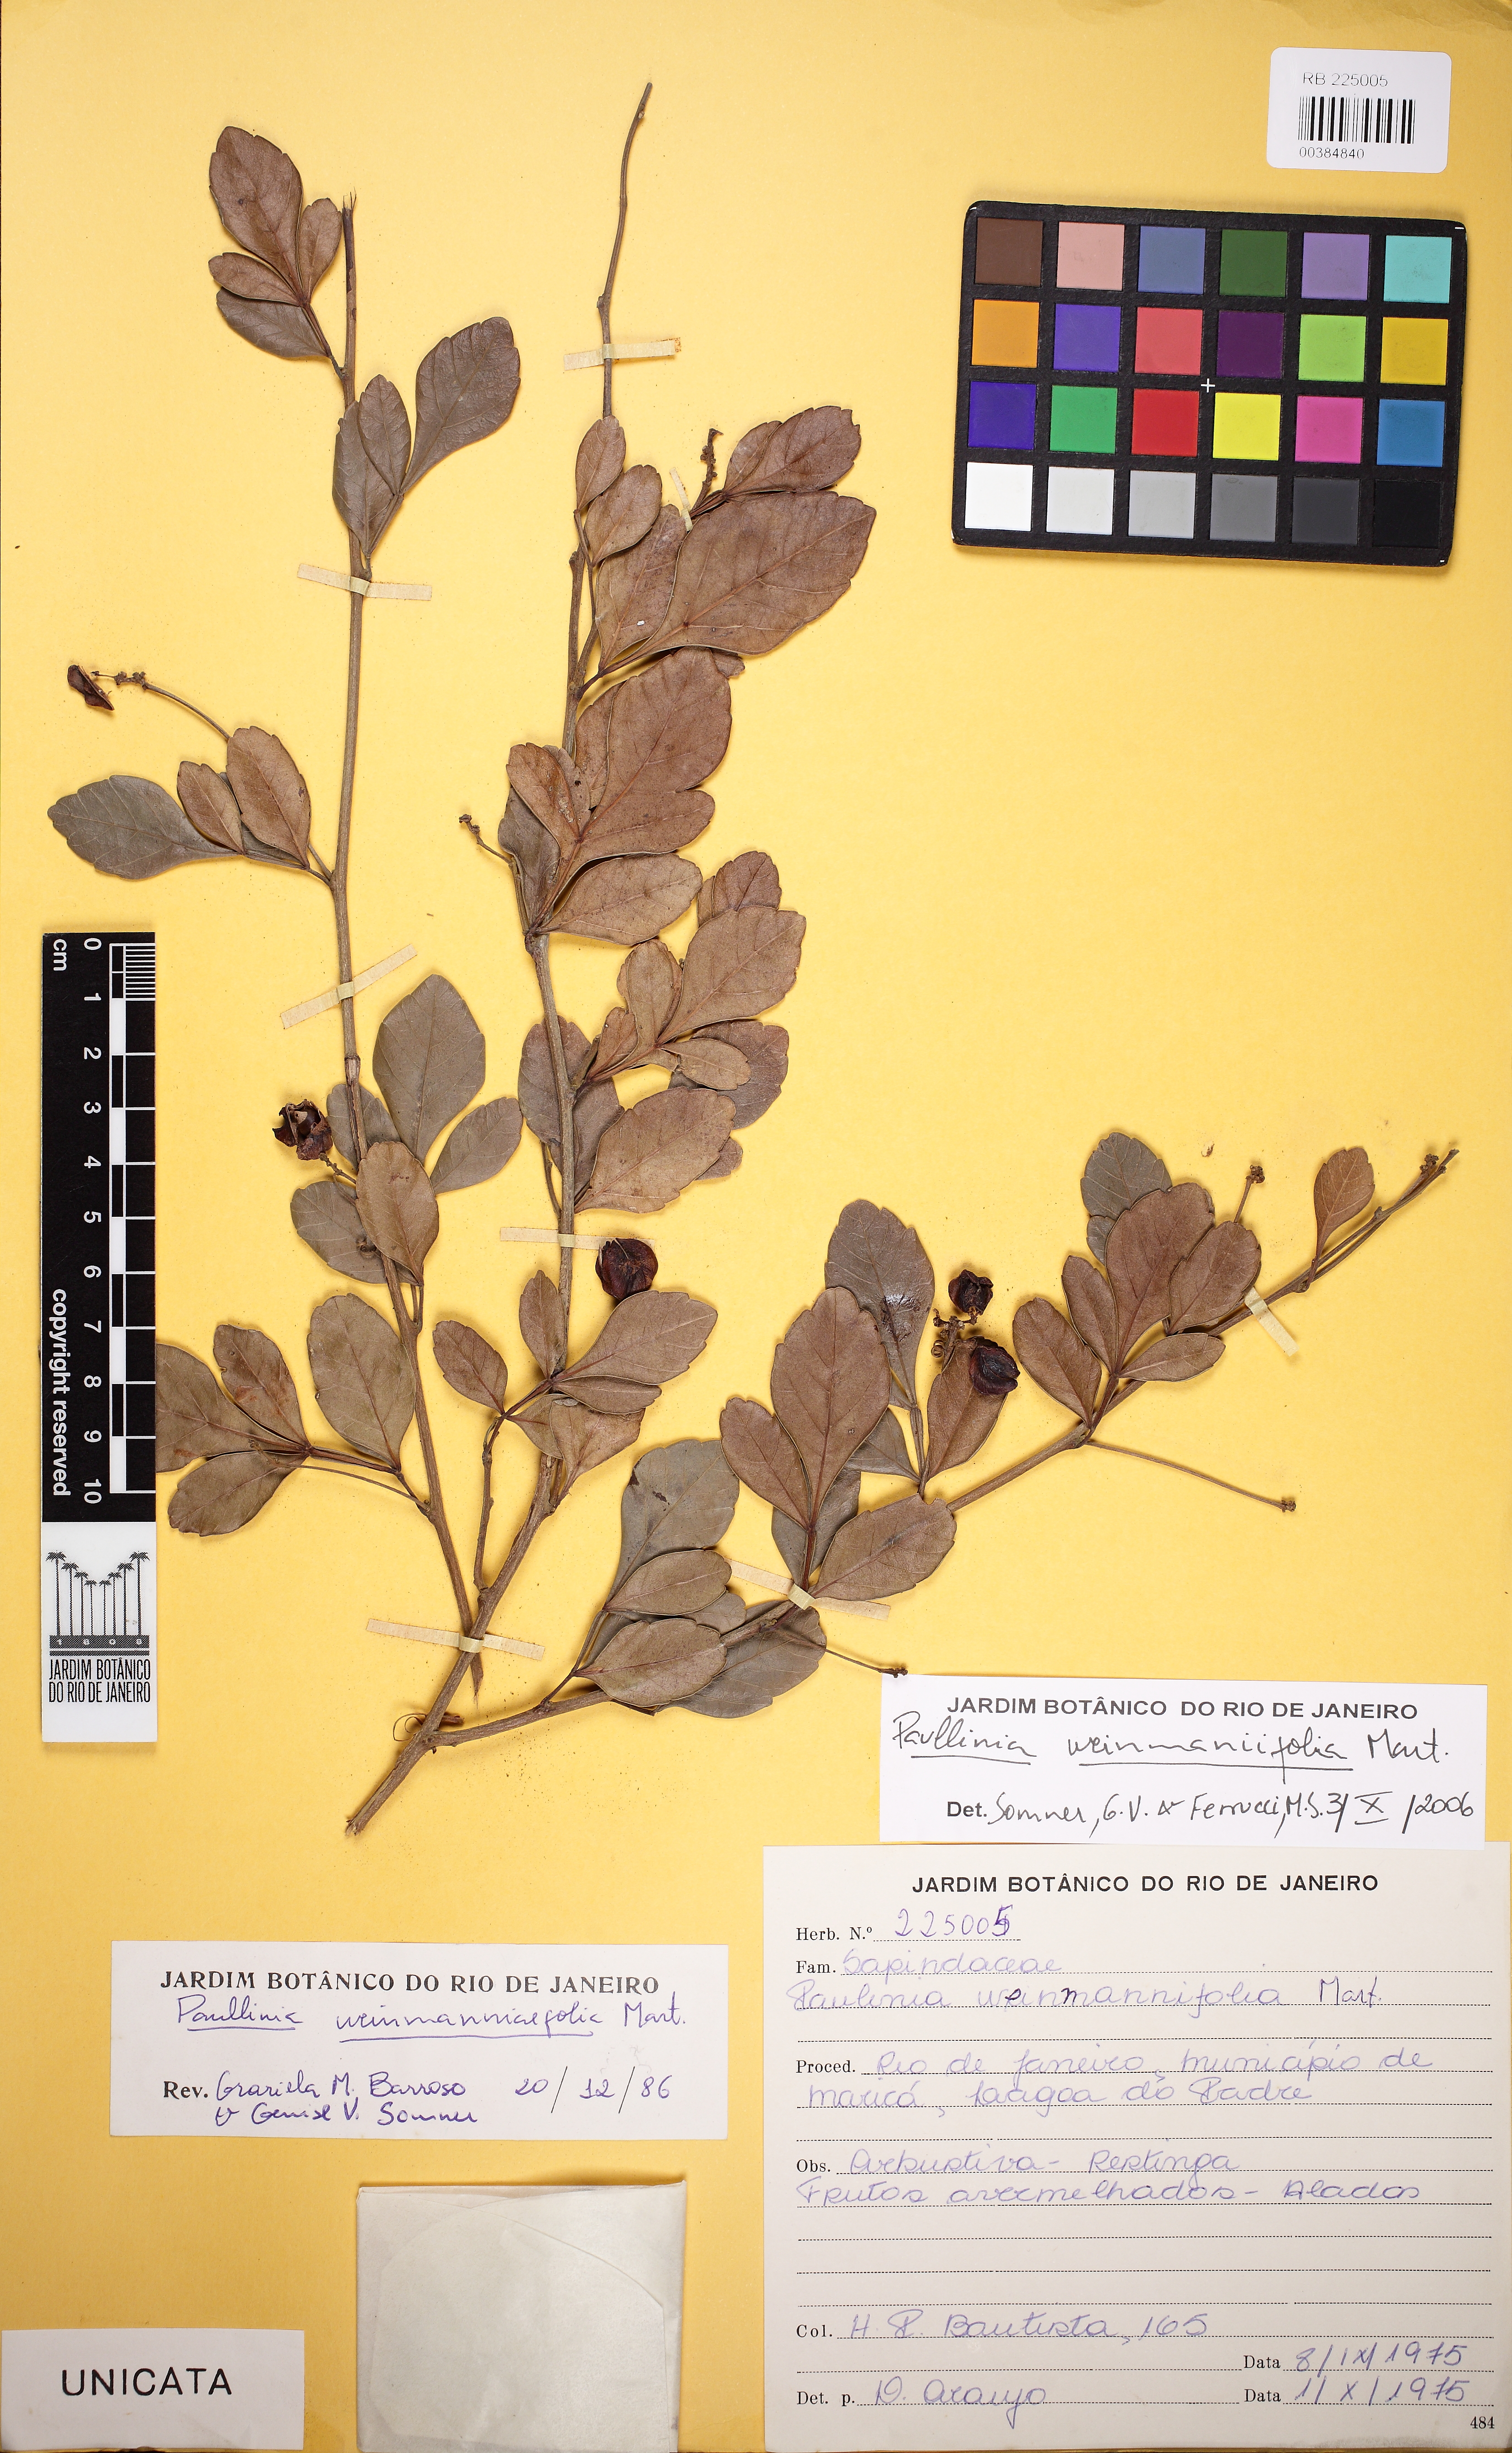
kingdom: Plantae
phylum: Tracheophyta
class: Magnoliopsida
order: Sapindales
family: Sapindaceae
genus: Paullinia
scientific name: Paullinia weinmanniifolia
